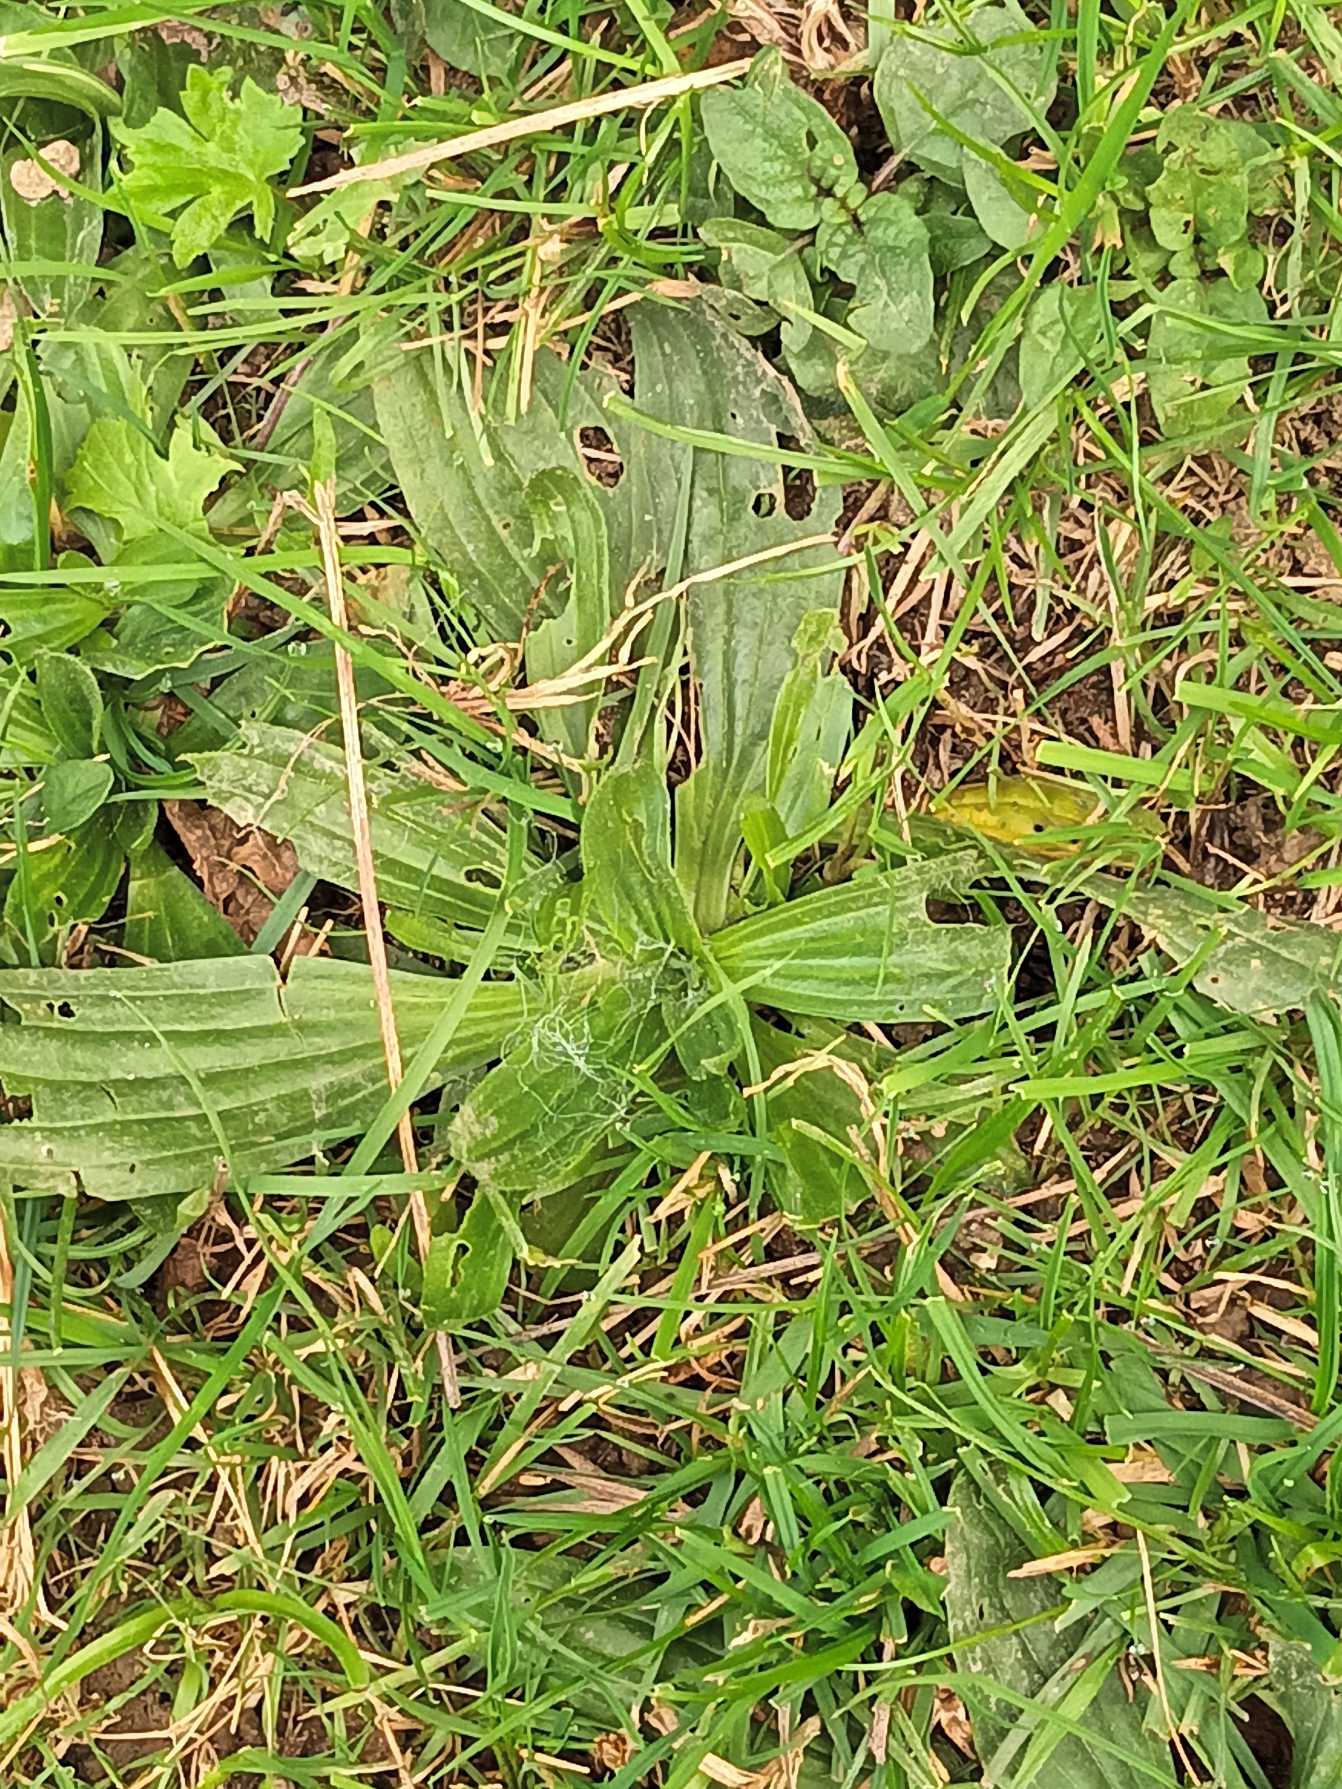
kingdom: Plantae
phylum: Tracheophyta
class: Magnoliopsida
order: Lamiales
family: Plantaginaceae
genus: Plantago
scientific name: Plantago lanceolata
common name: Lancet-vejbred
